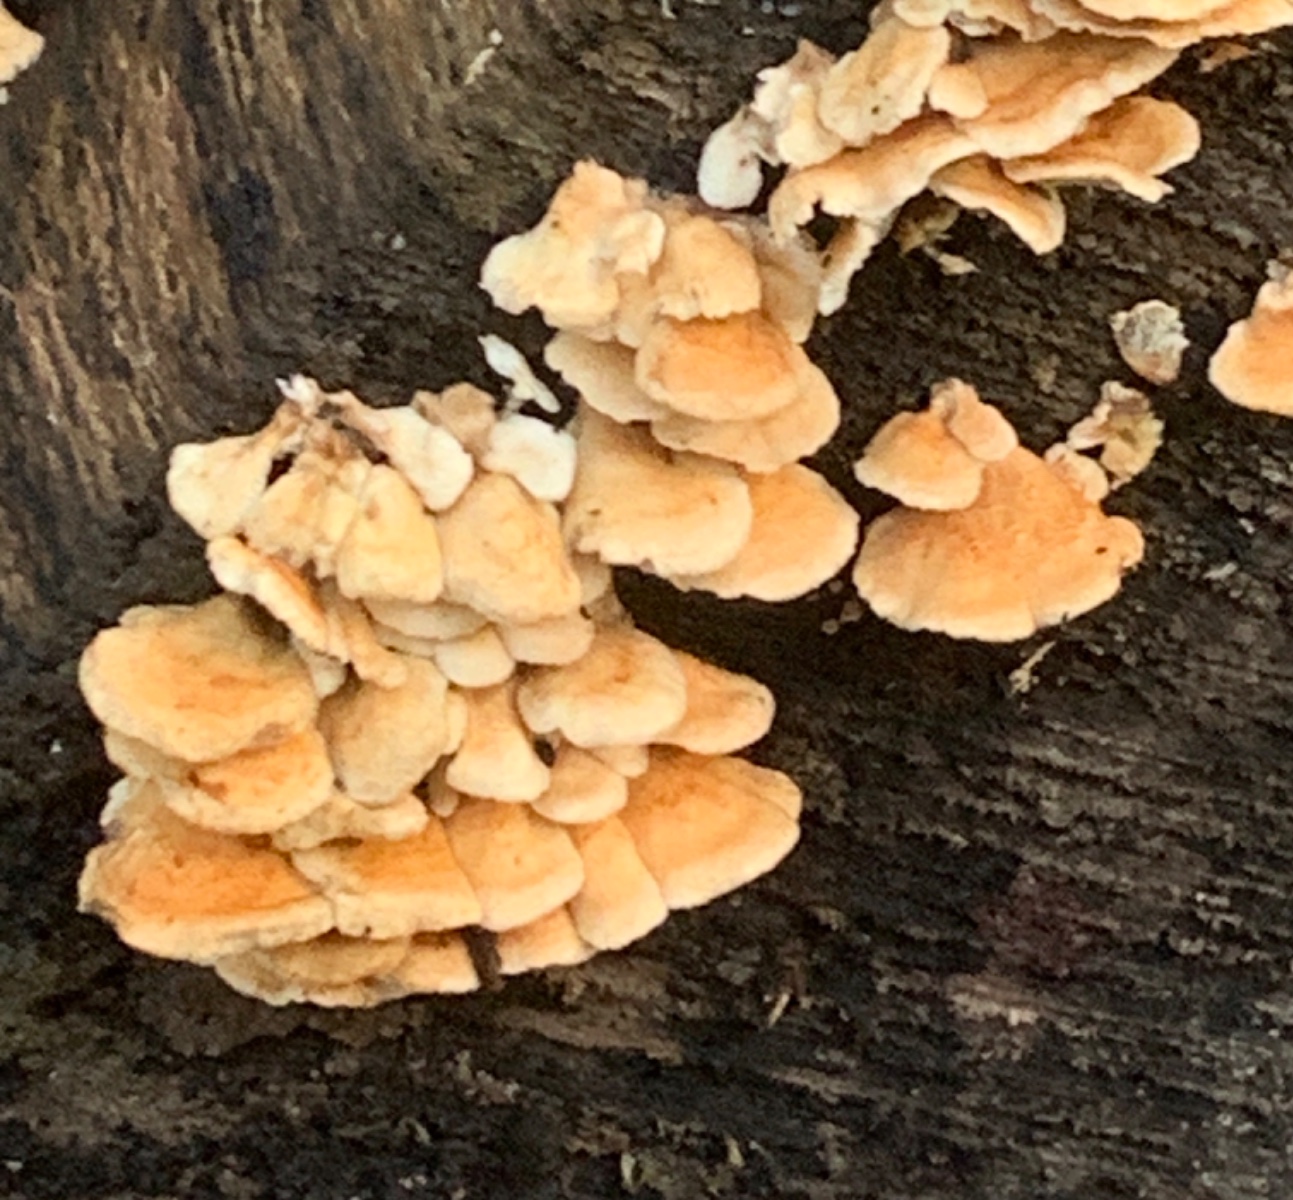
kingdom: Fungi
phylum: Basidiomycota
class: Agaricomycetes
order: Amylocorticiales
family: Amylocorticiaceae
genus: Plicaturopsis
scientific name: Plicaturopsis crispa
